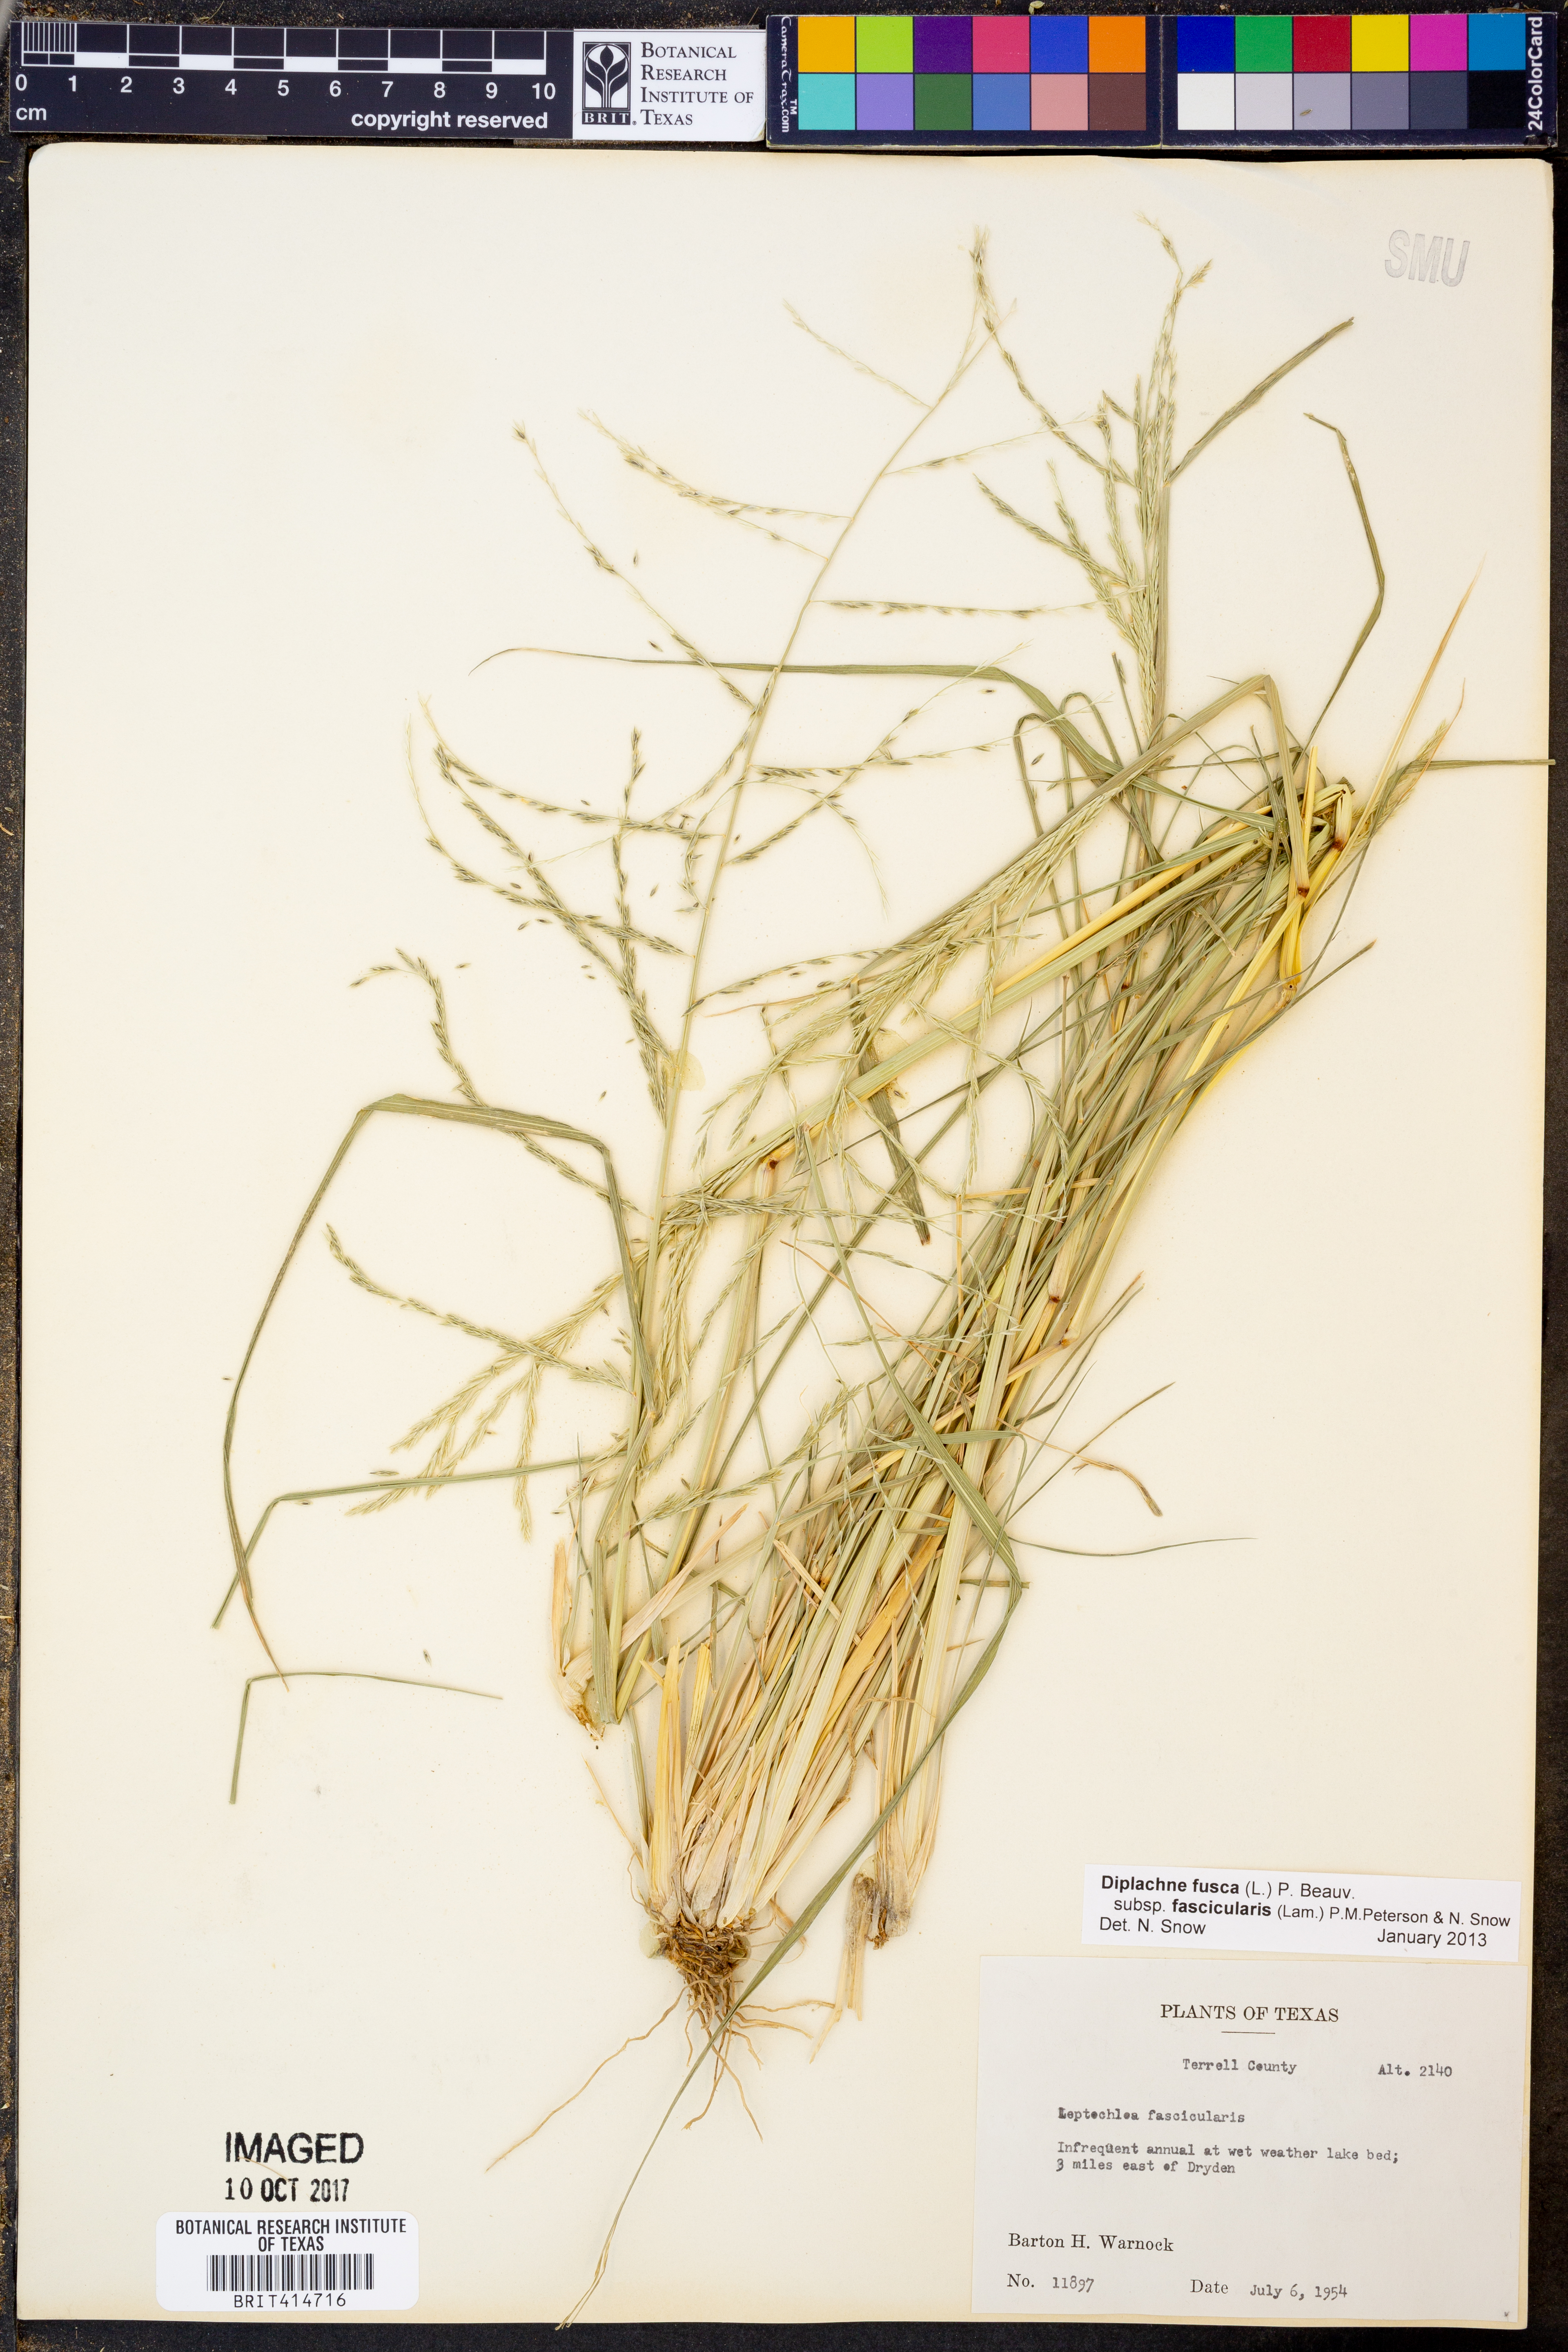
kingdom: Plantae
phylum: Tracheophyta
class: Liliopsida
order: Poales
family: Poaceae
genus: Diplachne
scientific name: Diplachne fusca
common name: Brown beetle grass
